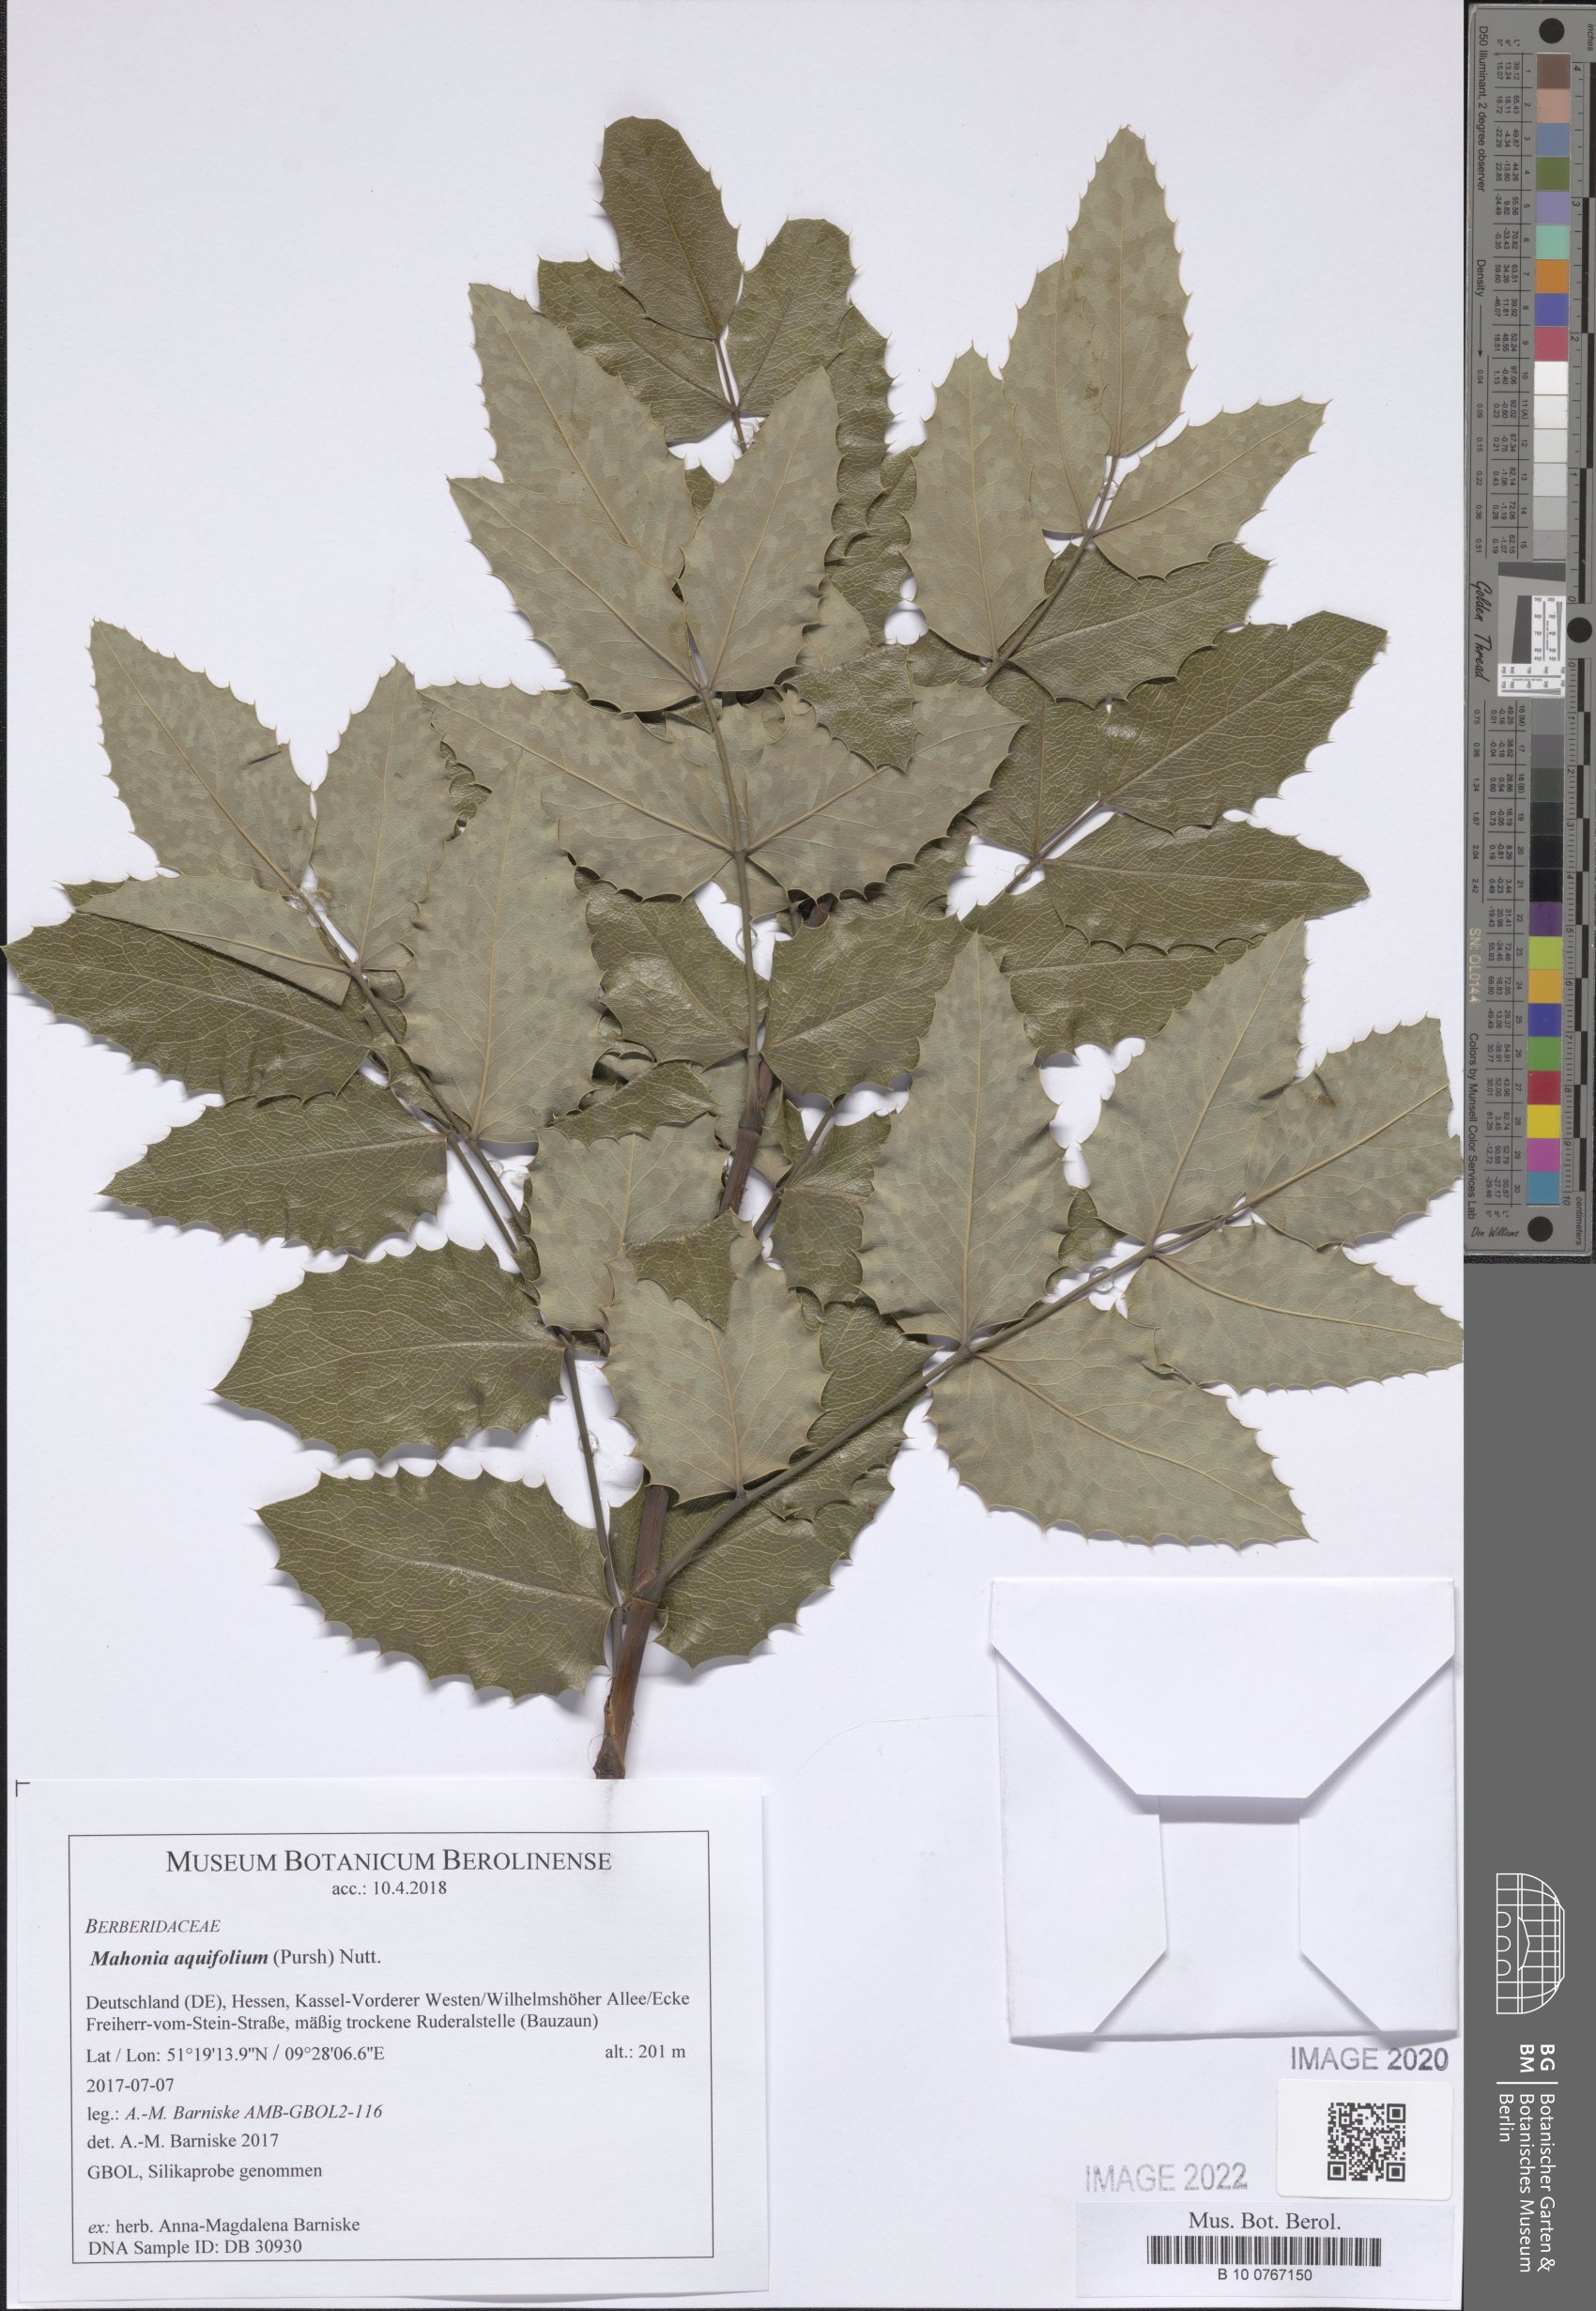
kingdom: Plantae
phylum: Tracheophyta
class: Magnoliopsida
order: Ranunculales
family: Berberidaceae
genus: Mahonia
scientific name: Mahonia aquifolium
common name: Oregon-grape
